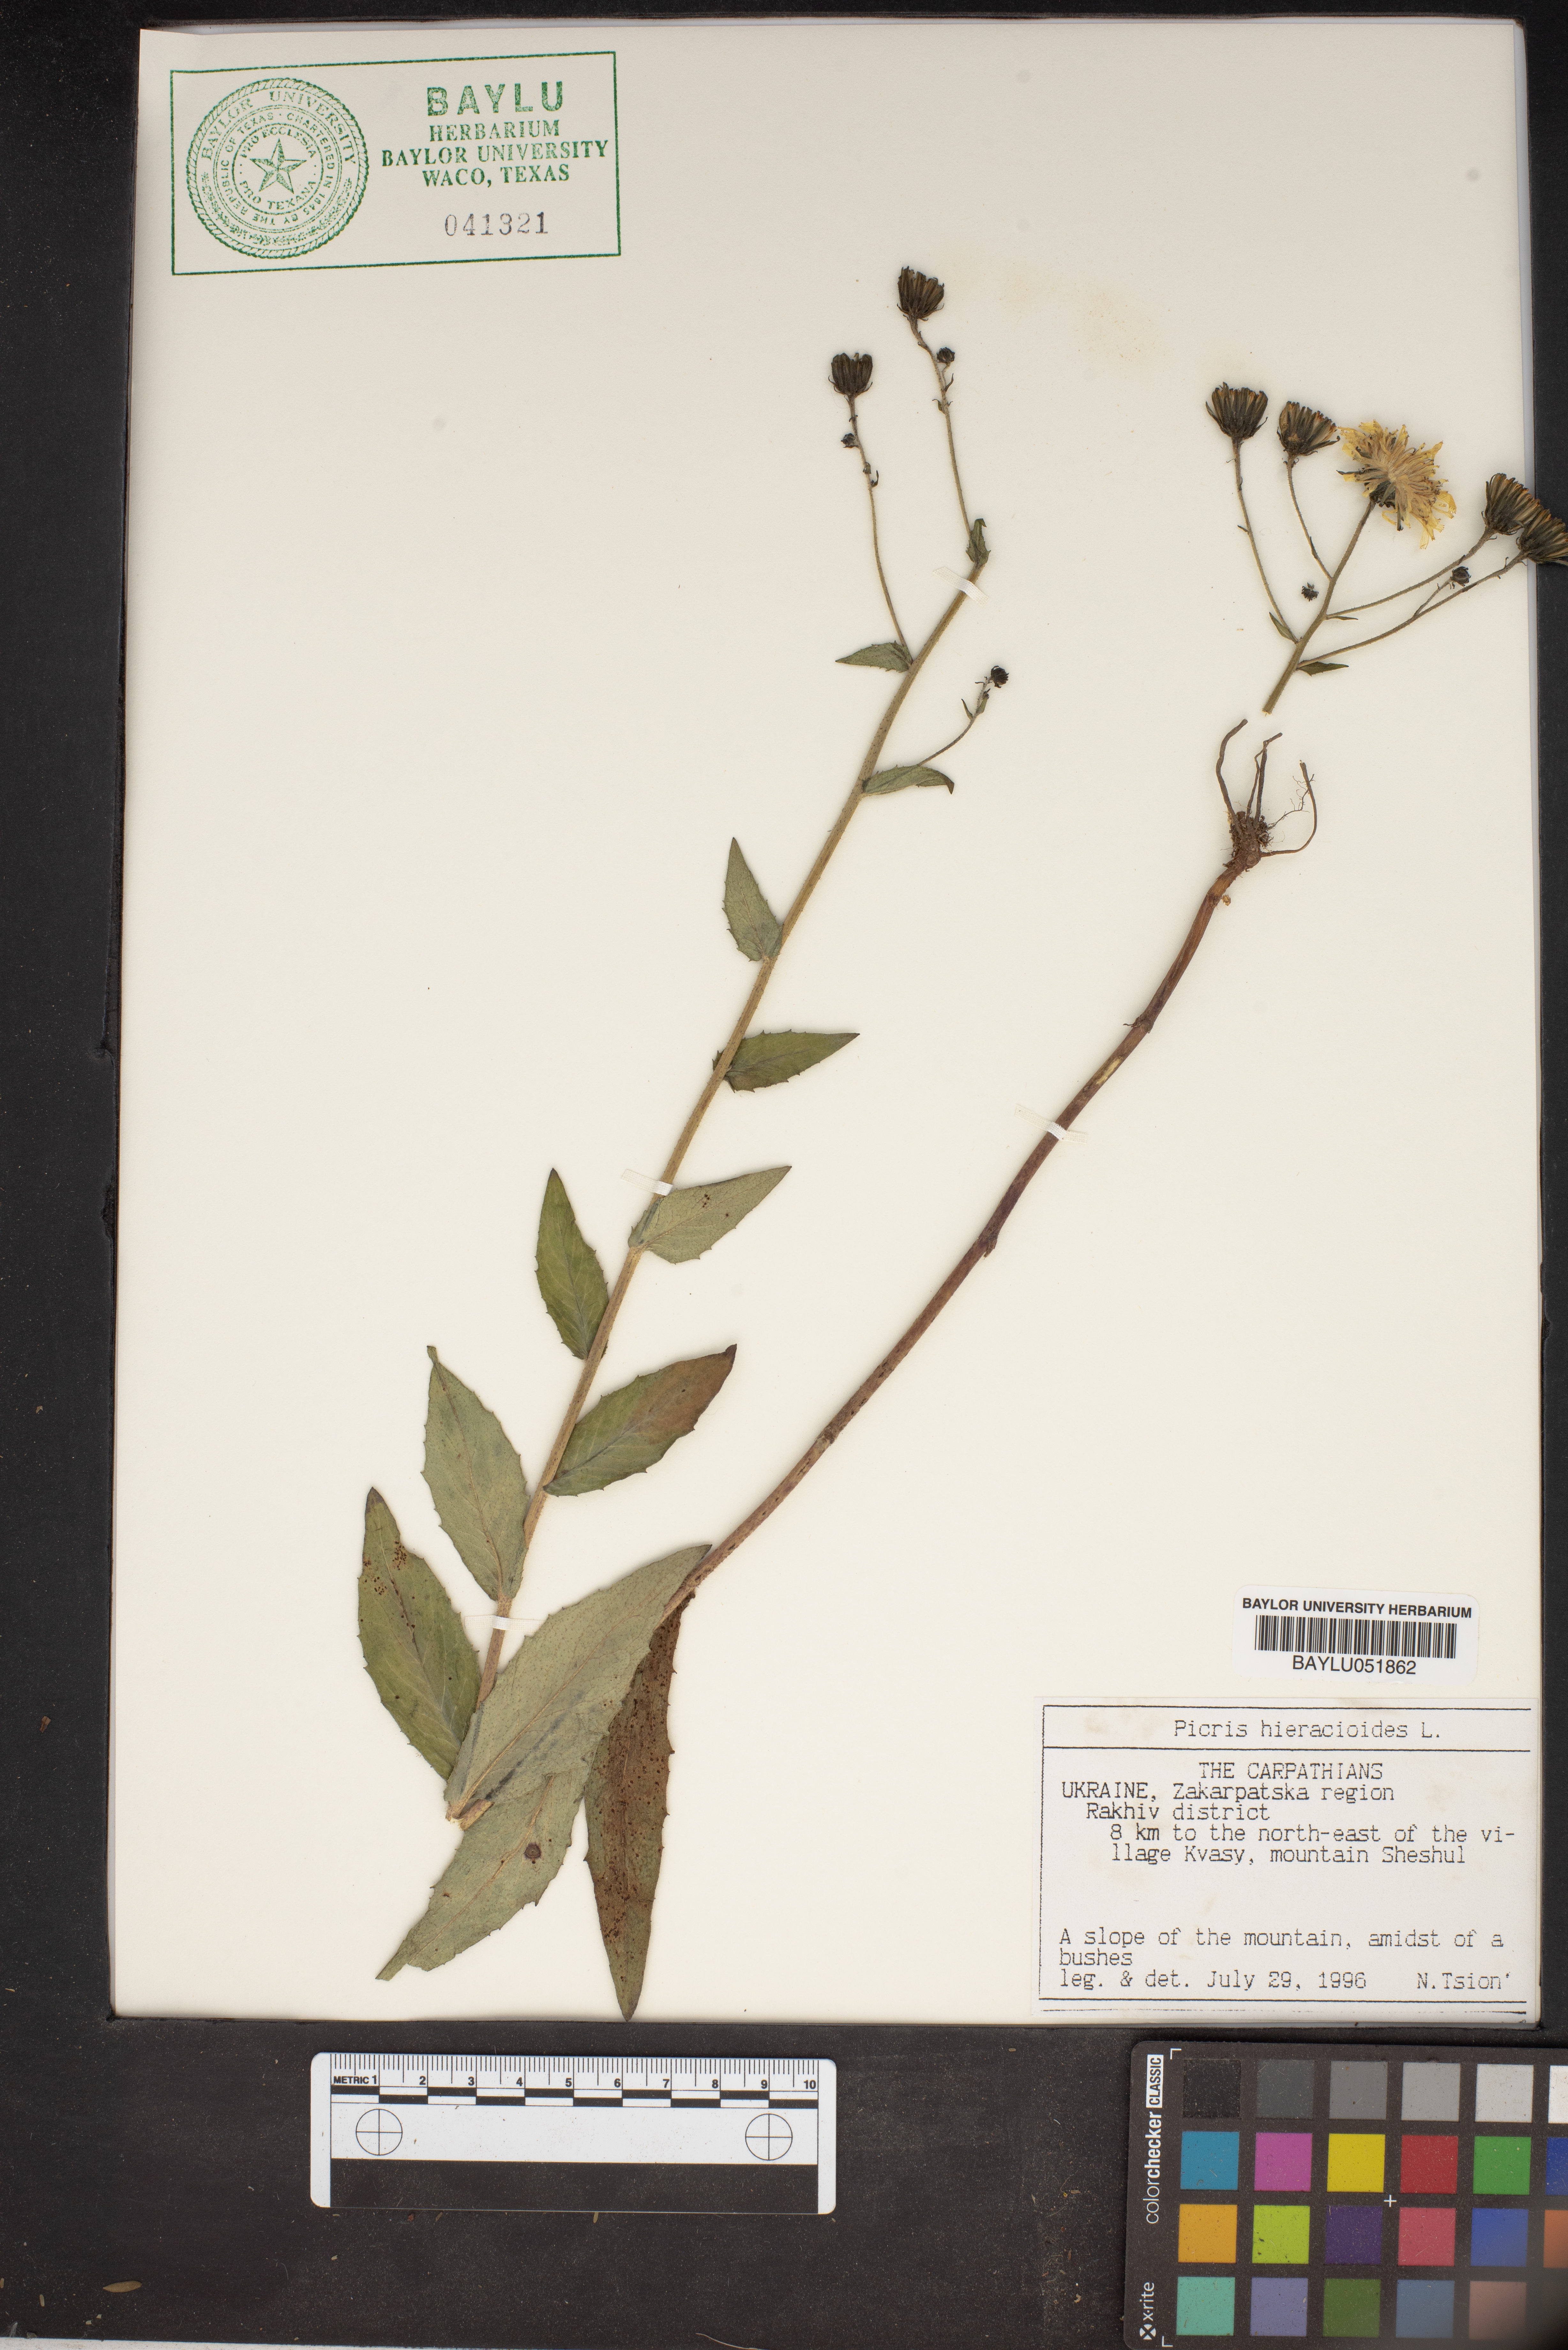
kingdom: Plantae
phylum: Tracheophyta
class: Magnoliopsida
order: Asterales
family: Asteraceae
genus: Picris
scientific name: Picris hieracioides
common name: Hawkweed oxtongue
